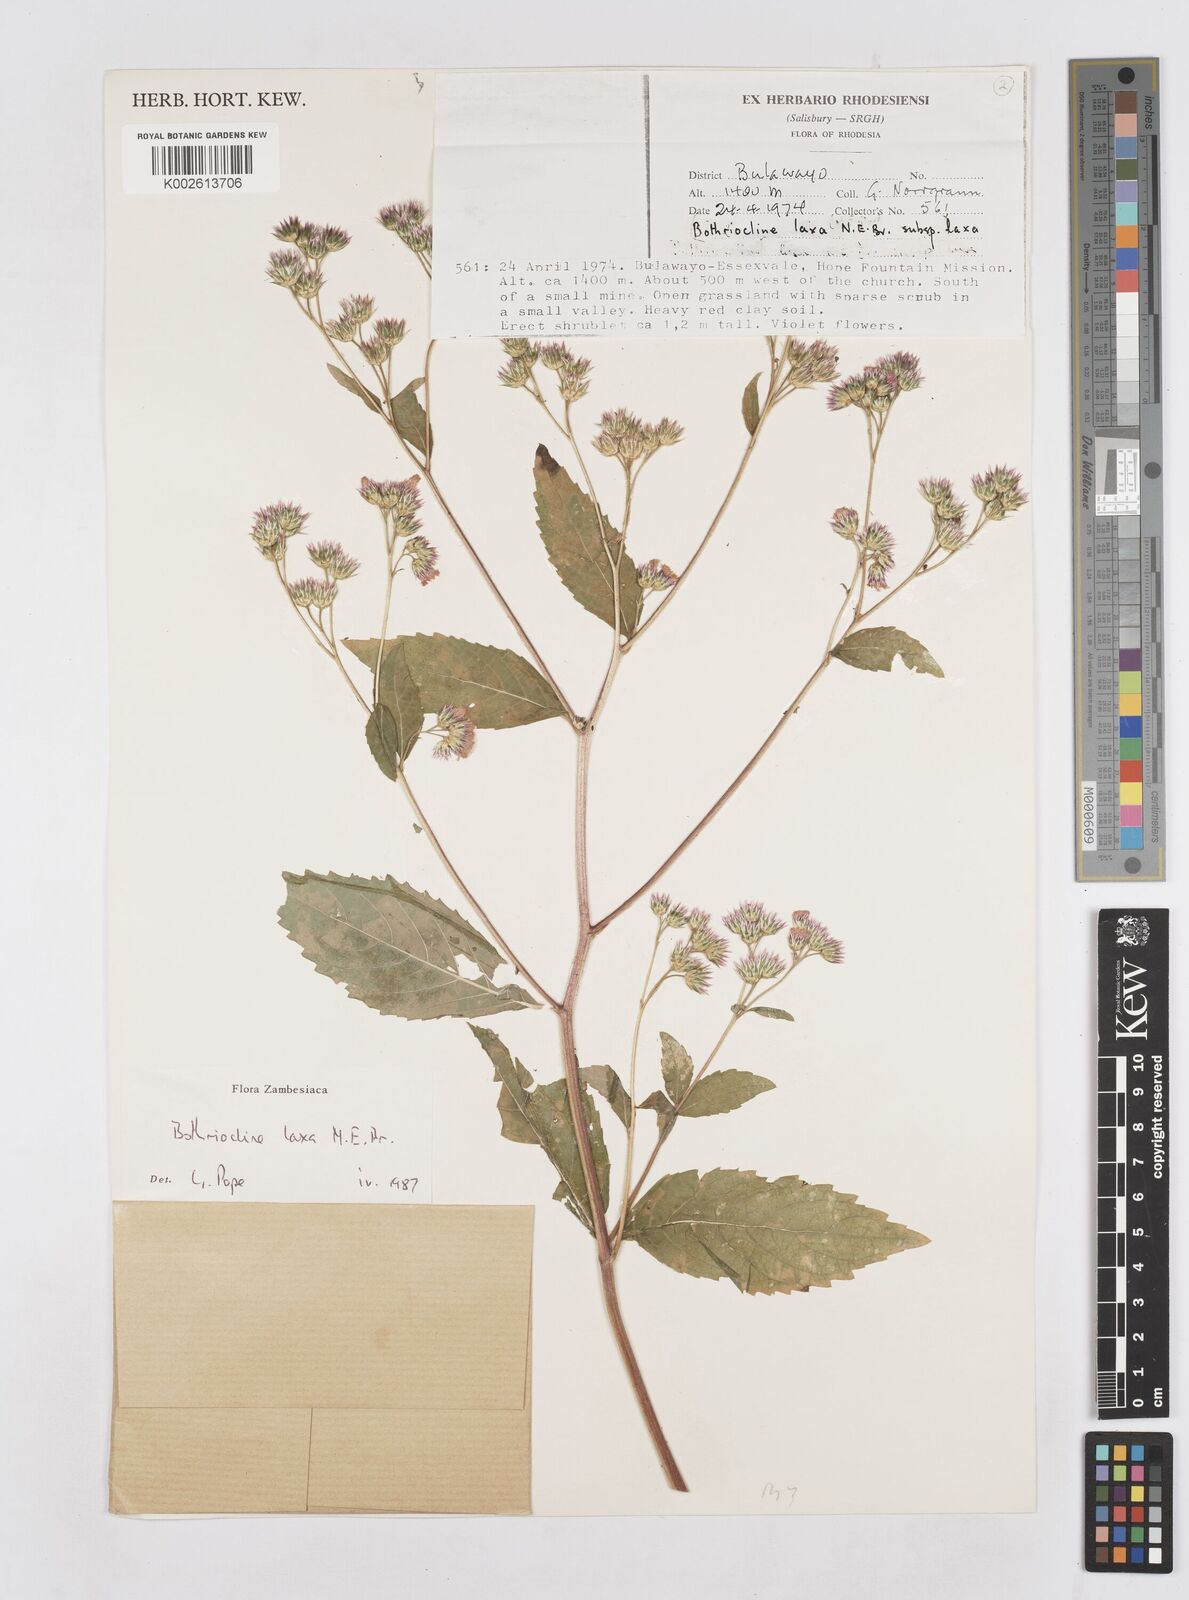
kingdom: Plantae
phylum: Tracheophyta
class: Magnoliopsida
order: Asterales
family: Asteraceae
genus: Bothriocline
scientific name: Bothriocline laxa
